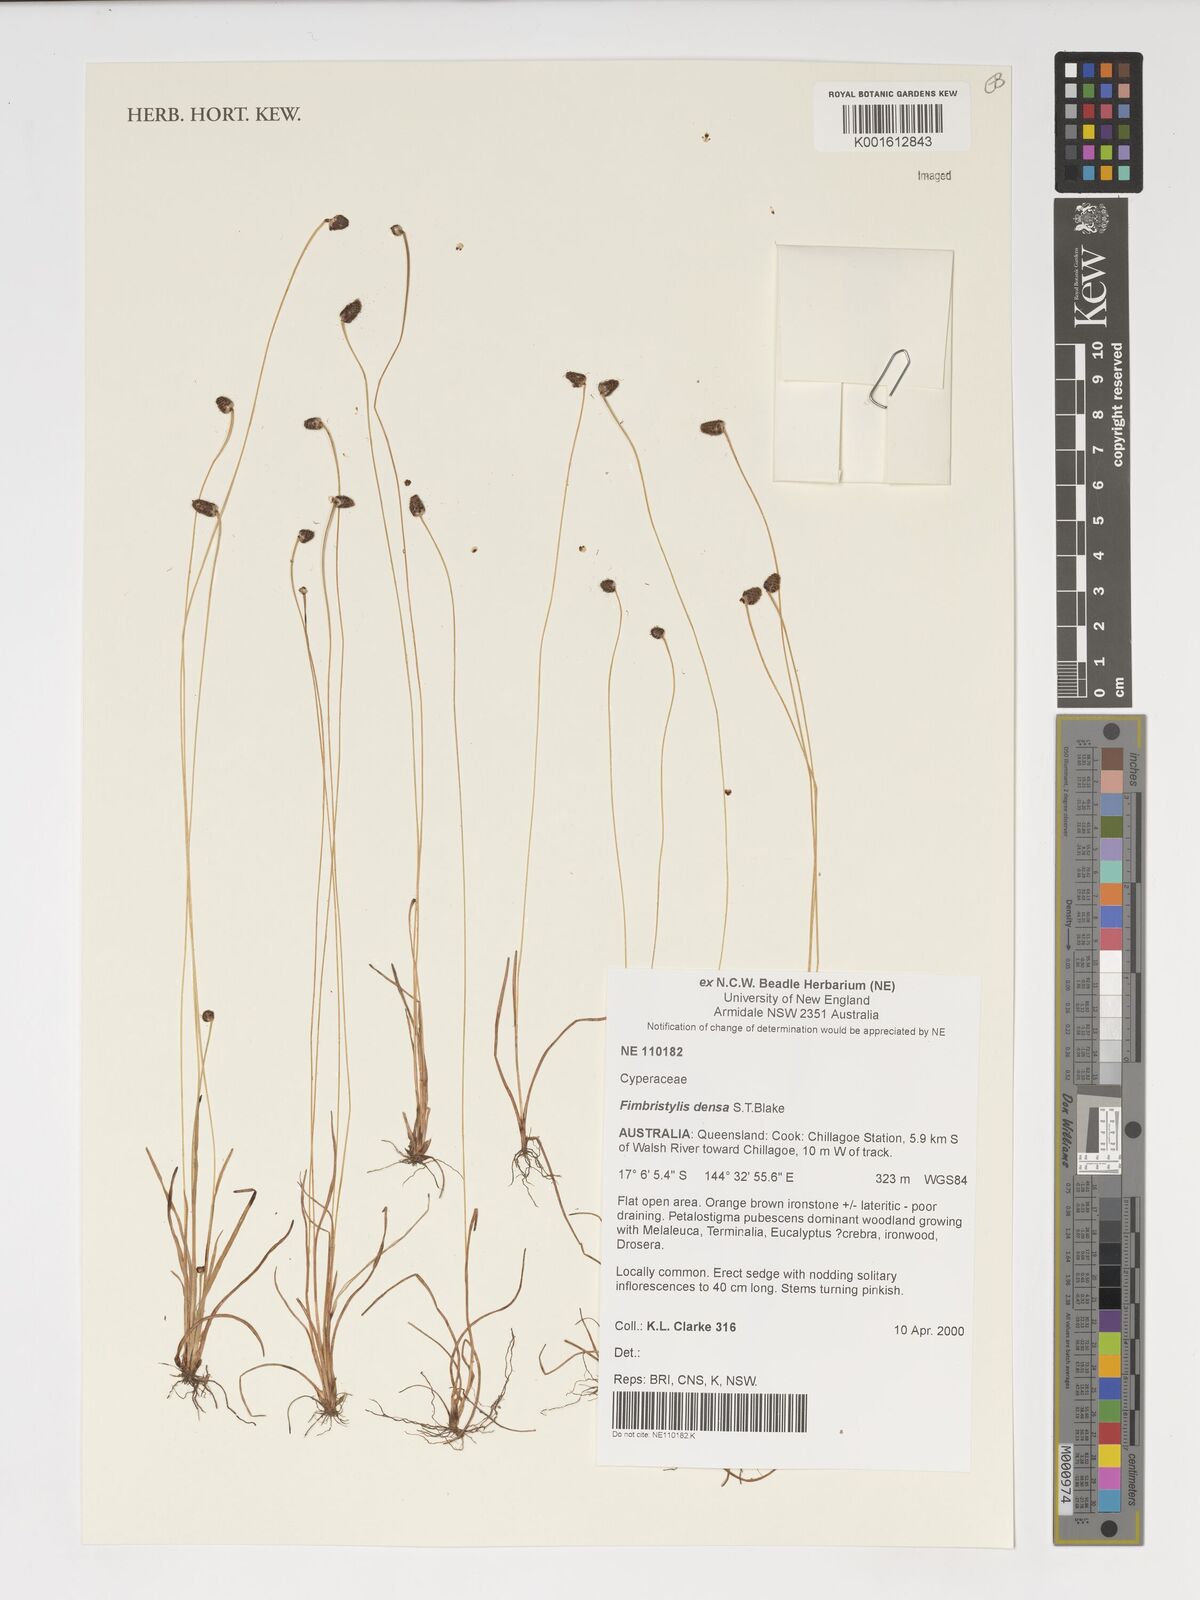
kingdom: Plantae
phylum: Tracheophyta
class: Liliopsida
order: Poales
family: Cyperaceae
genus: Fimbristylis
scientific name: Fimbristylis densa
